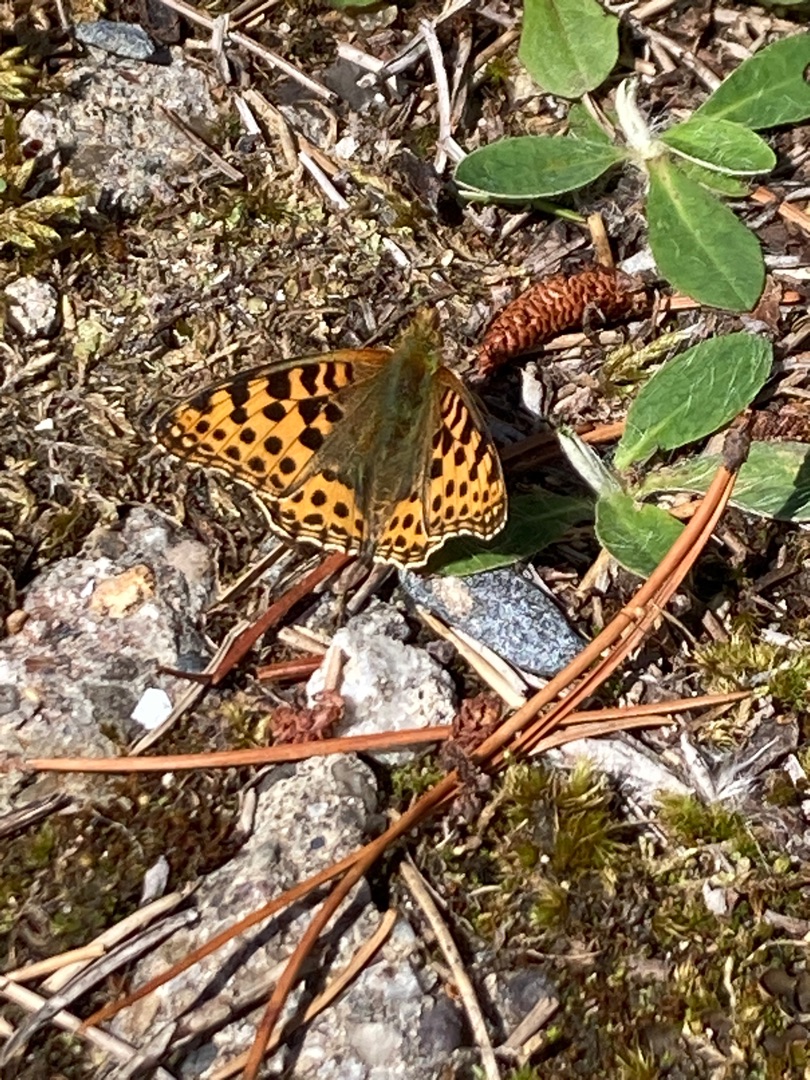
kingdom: Animalia
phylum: Arthropoda
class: Insecta
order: Lepidoptera
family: Nymphalidae
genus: Issoria
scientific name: Issoria lathonia
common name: Storplettet perlemorsommerfugl
